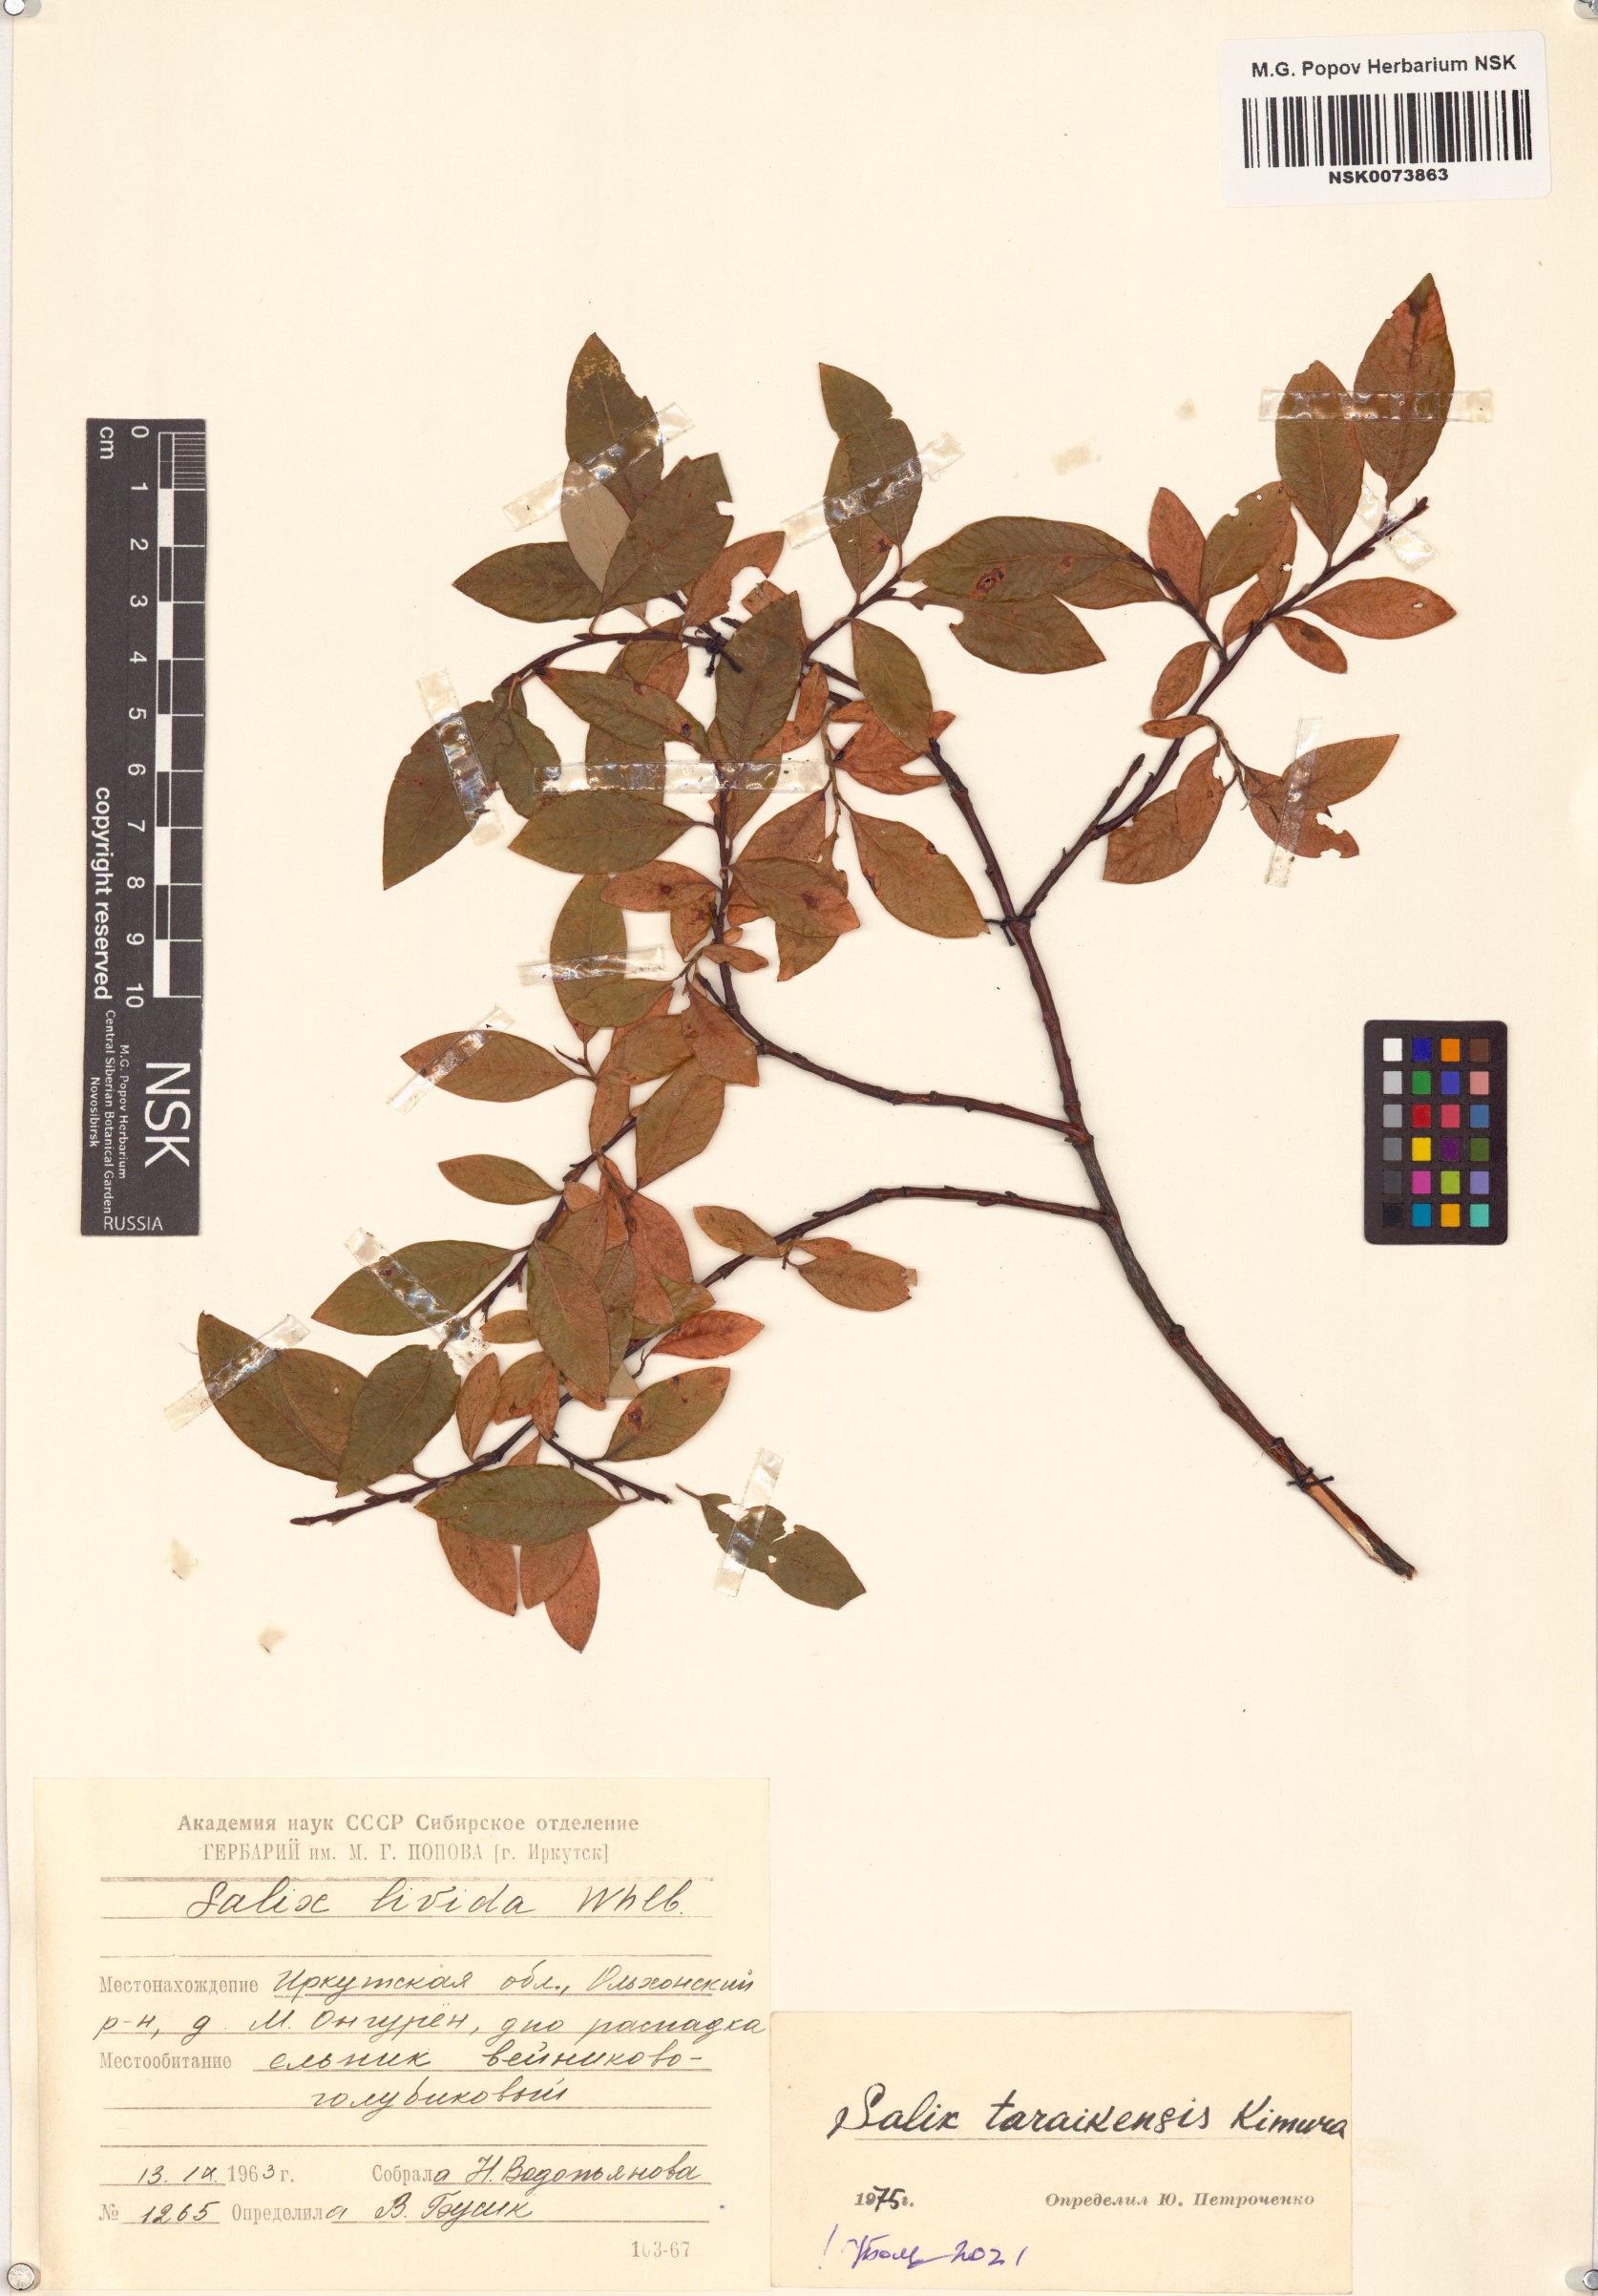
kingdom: Plantae
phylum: Tracheophyta
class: Magnoliopsida
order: Malpighiales
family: Salicaceae
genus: Salix
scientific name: Salix taraikensis
